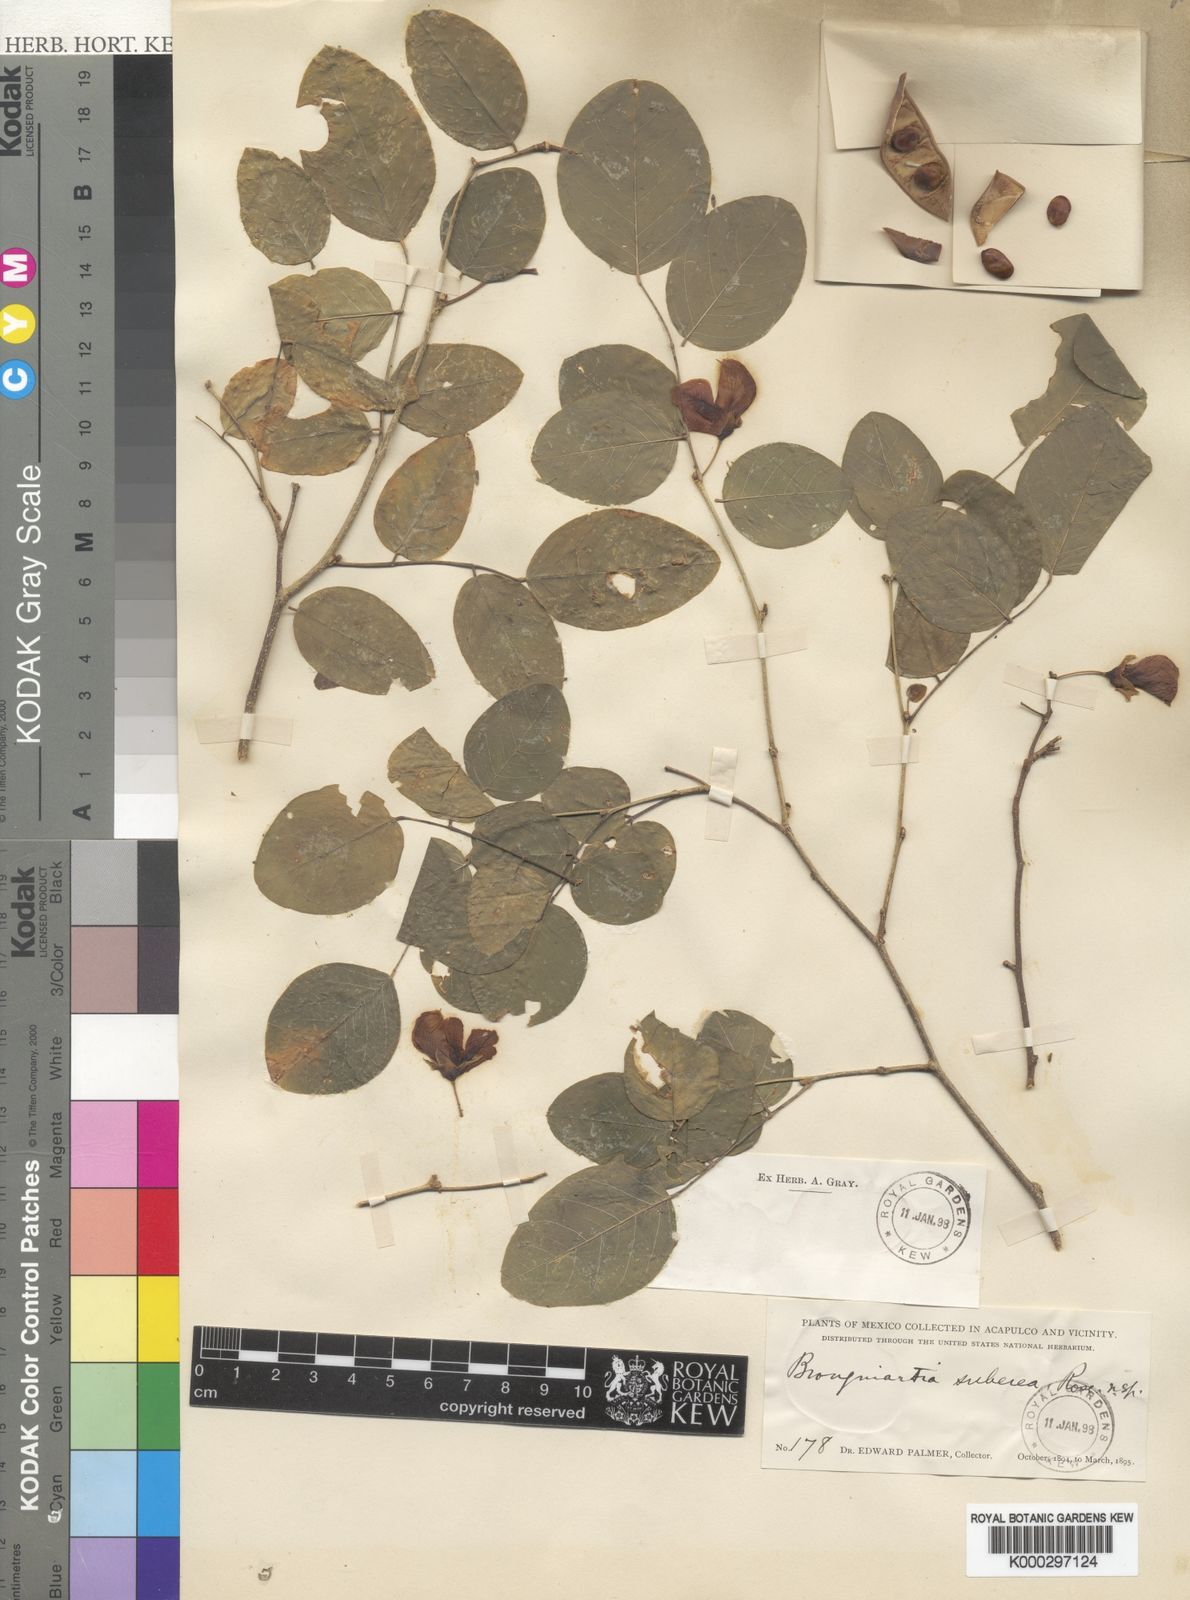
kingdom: Plantae
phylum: Tracheophyta
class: Magnoliopsida
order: Fabales
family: Fabaceae
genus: Brongniartia
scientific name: Brongniartia suberea
